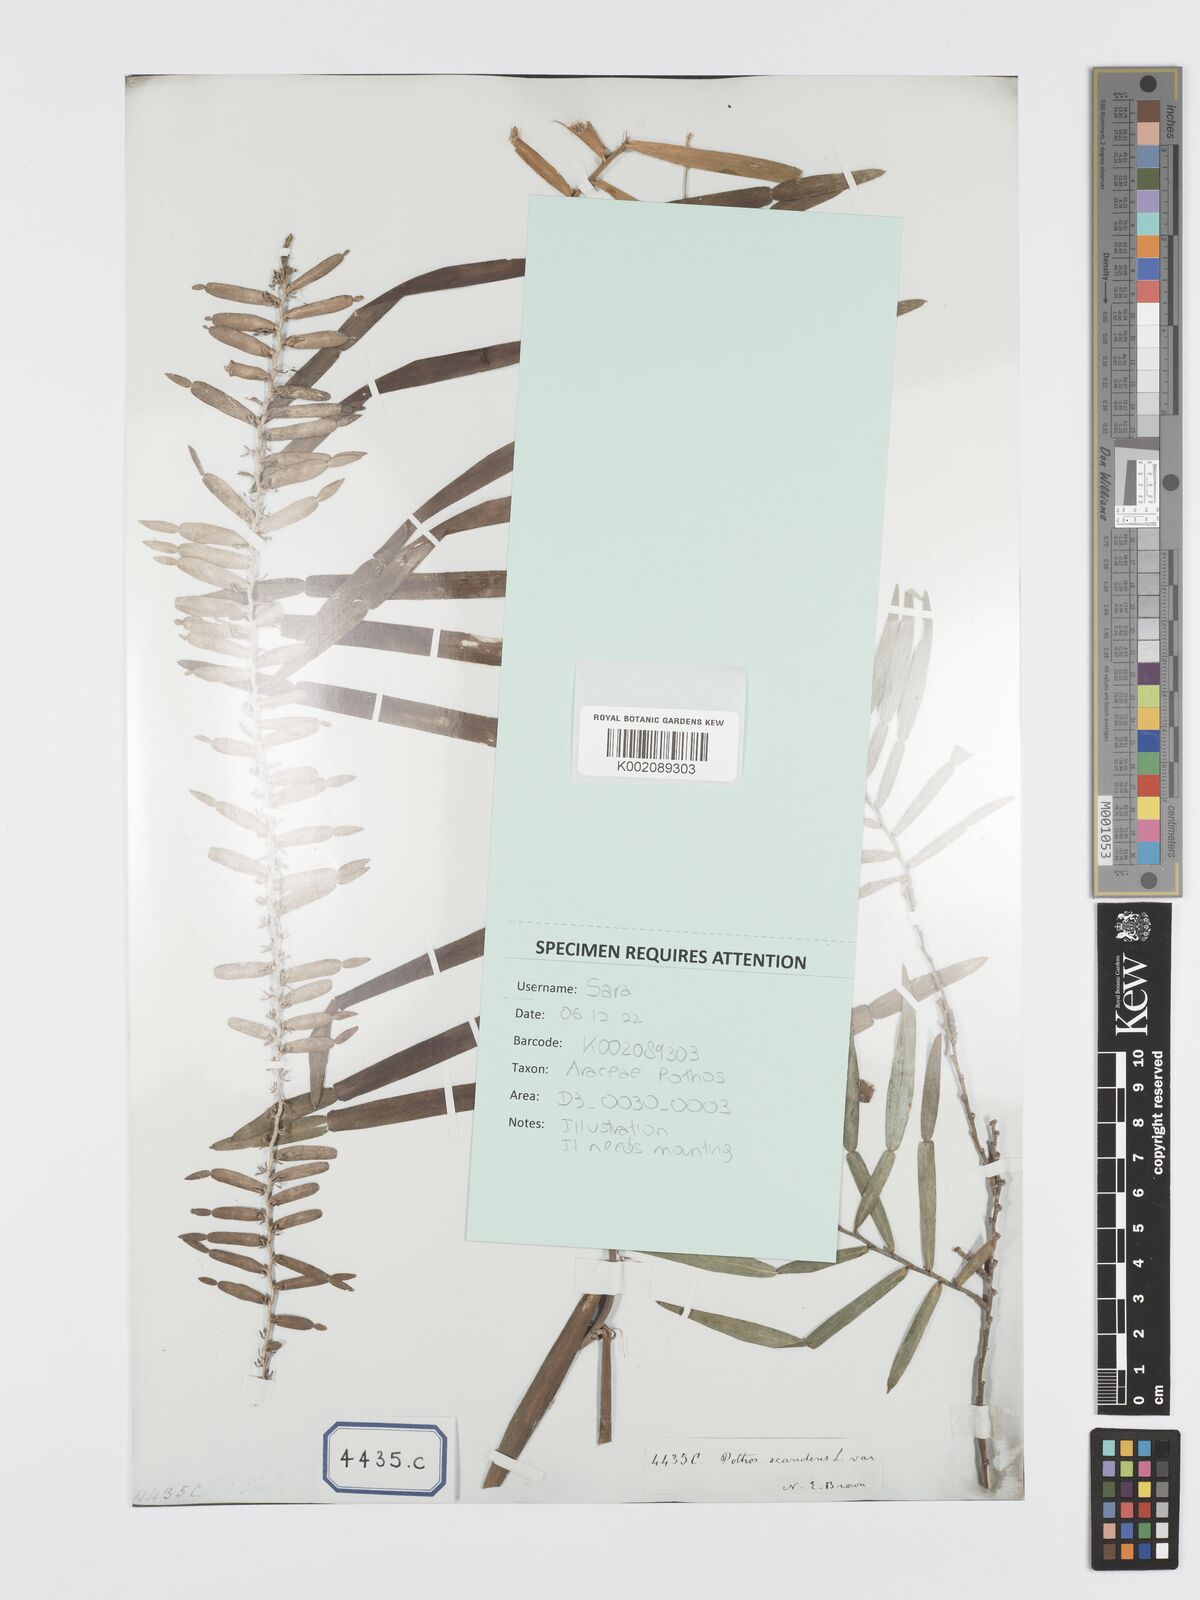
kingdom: Plantae
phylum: Tracheophyta
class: Liliopsida
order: Alismatales
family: Araceae
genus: Pothos
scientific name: Pothos scandens
